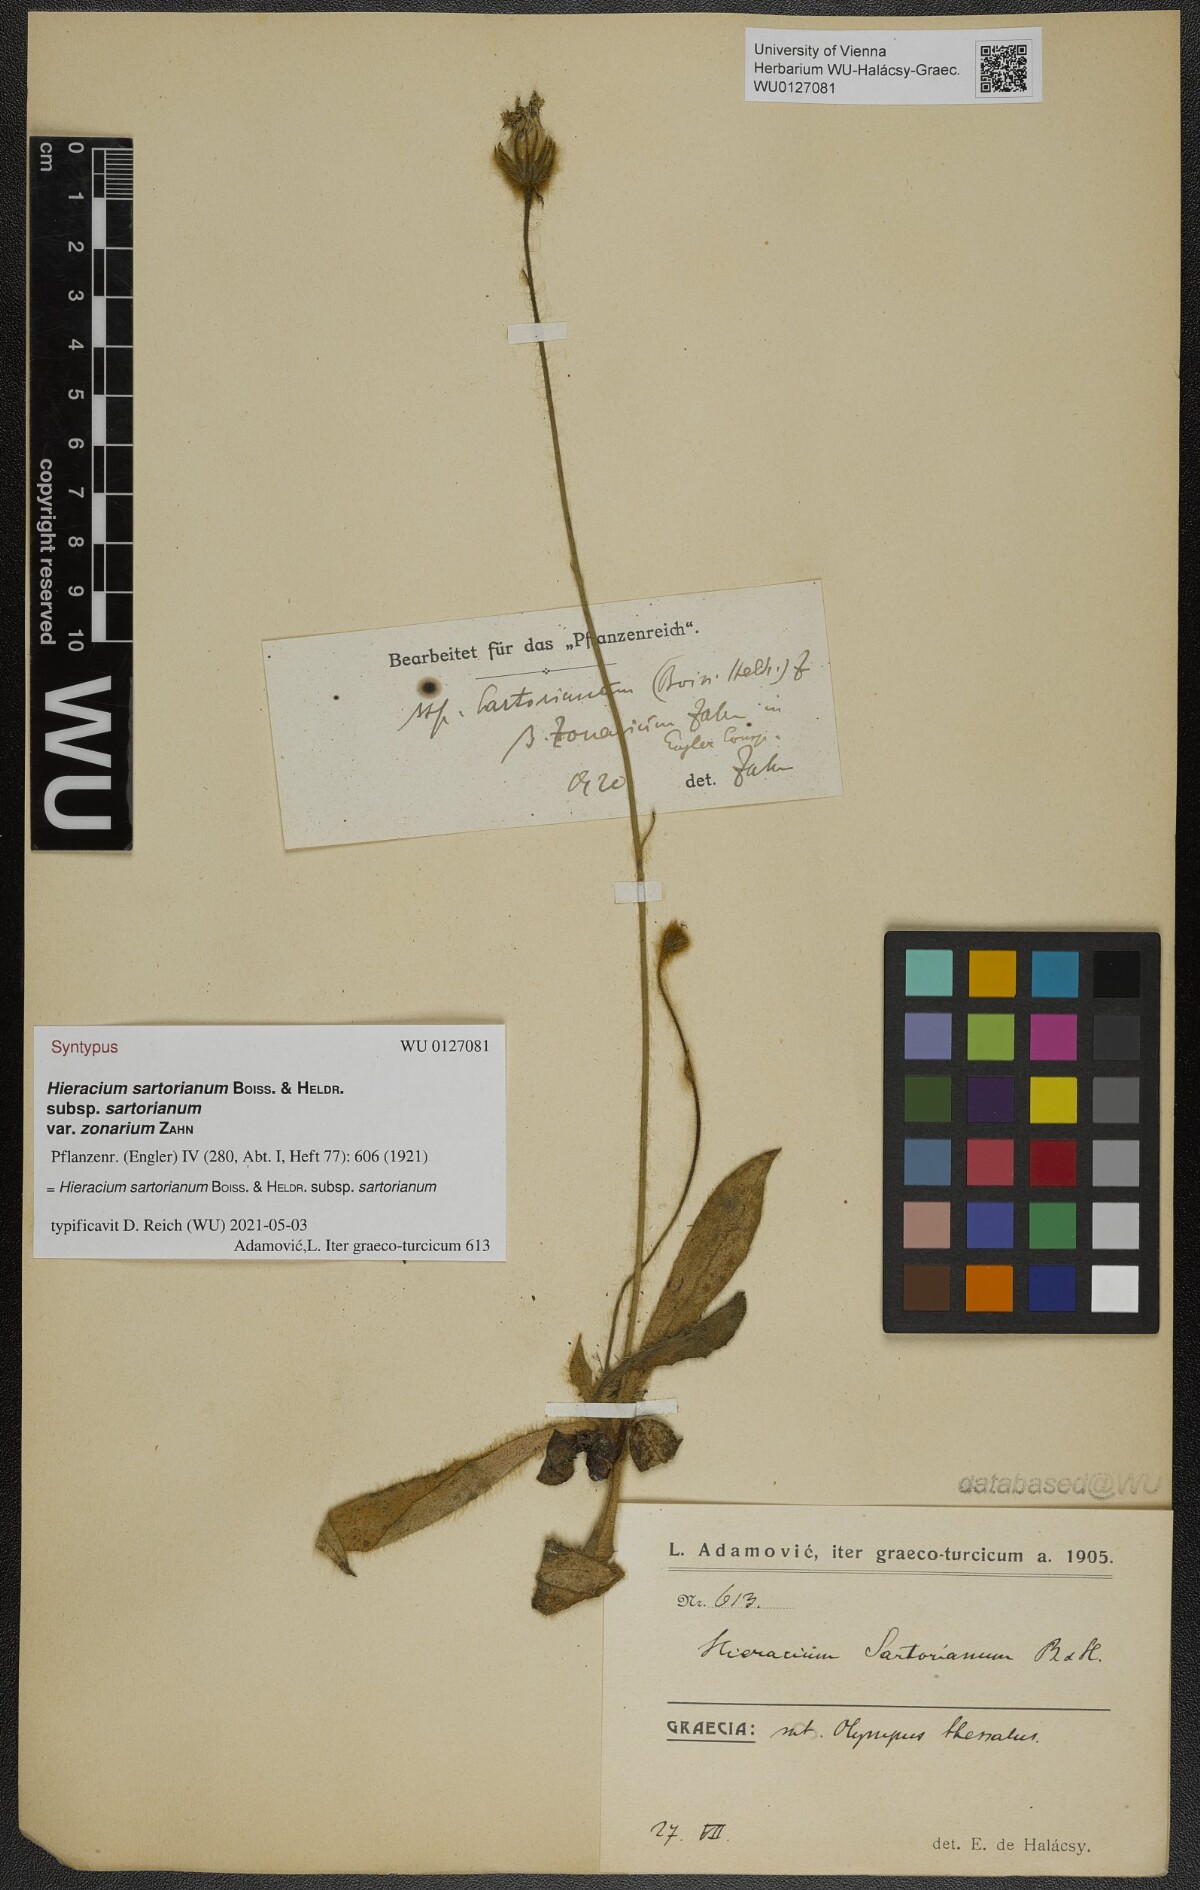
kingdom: Plantae
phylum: Tracheophyta
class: Magnoliopsida
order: Asterales
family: Asteraceae
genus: Hieracium
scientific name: Hieracium sartorianum
